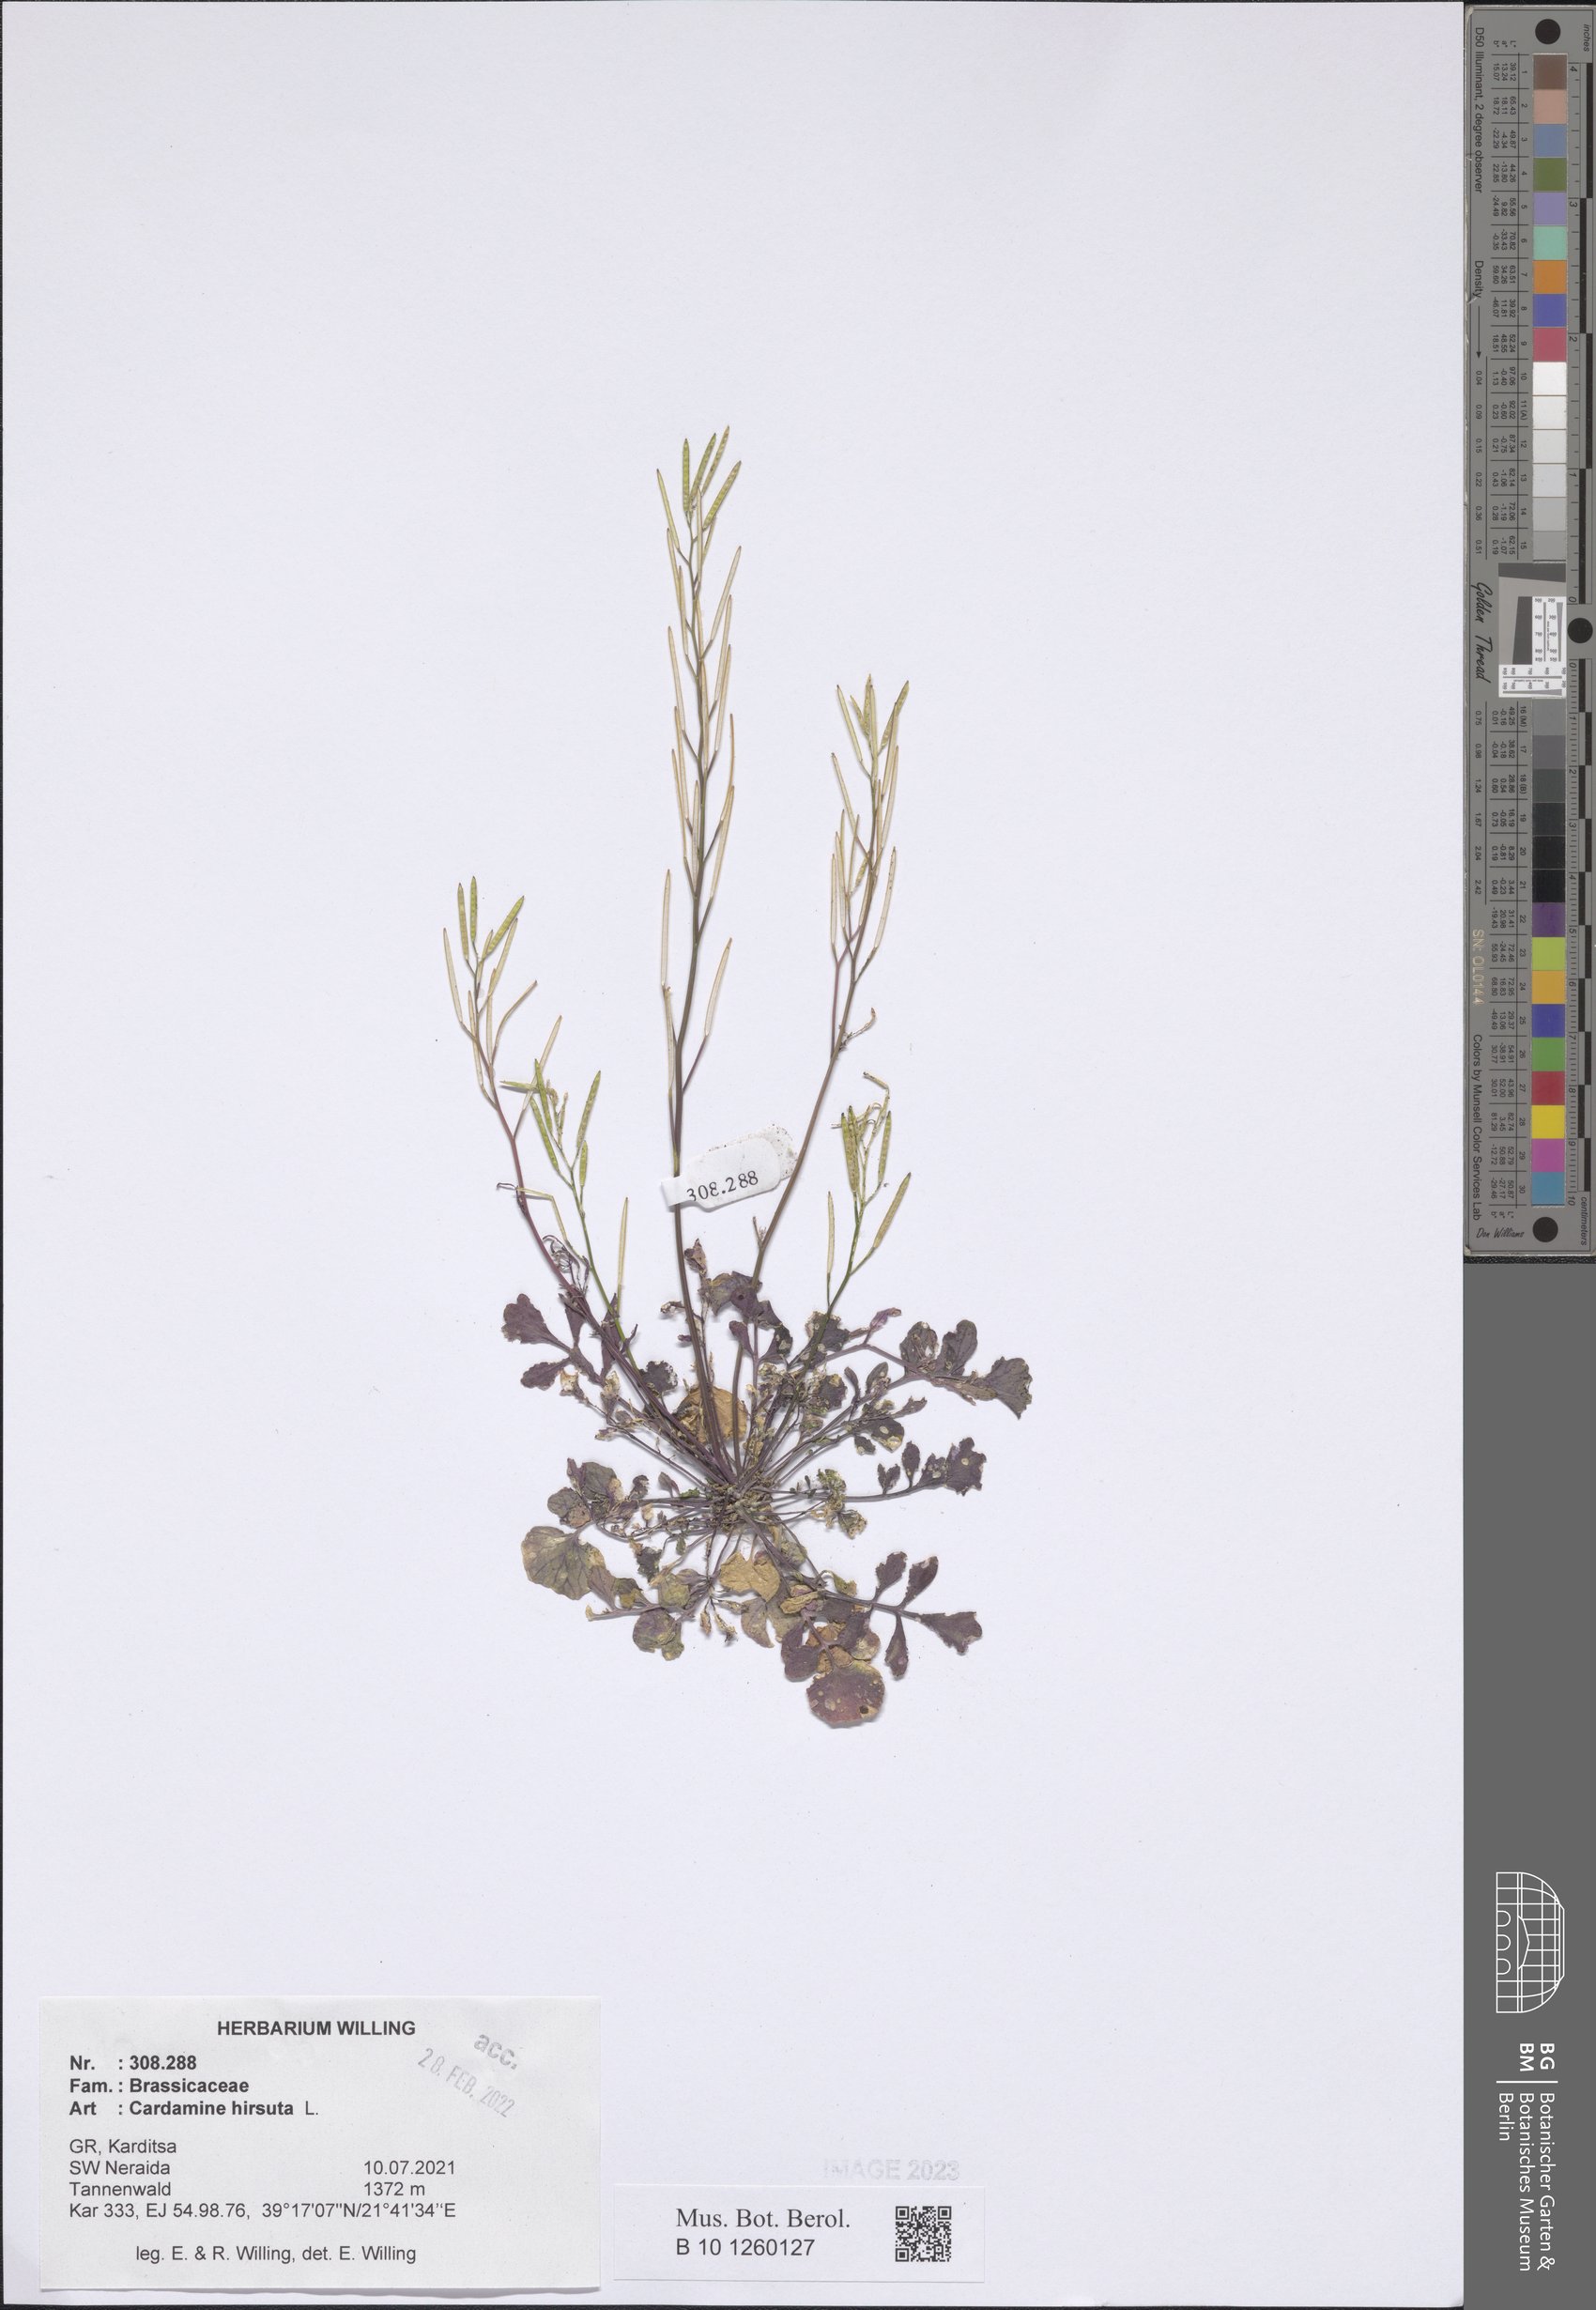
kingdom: Plantae
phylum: Tracheophyta
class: Magnoliopsida
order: Brassicales
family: Brassicaceae
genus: Cardamine
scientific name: Cardamine hirsuta
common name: Hairy bittercress
